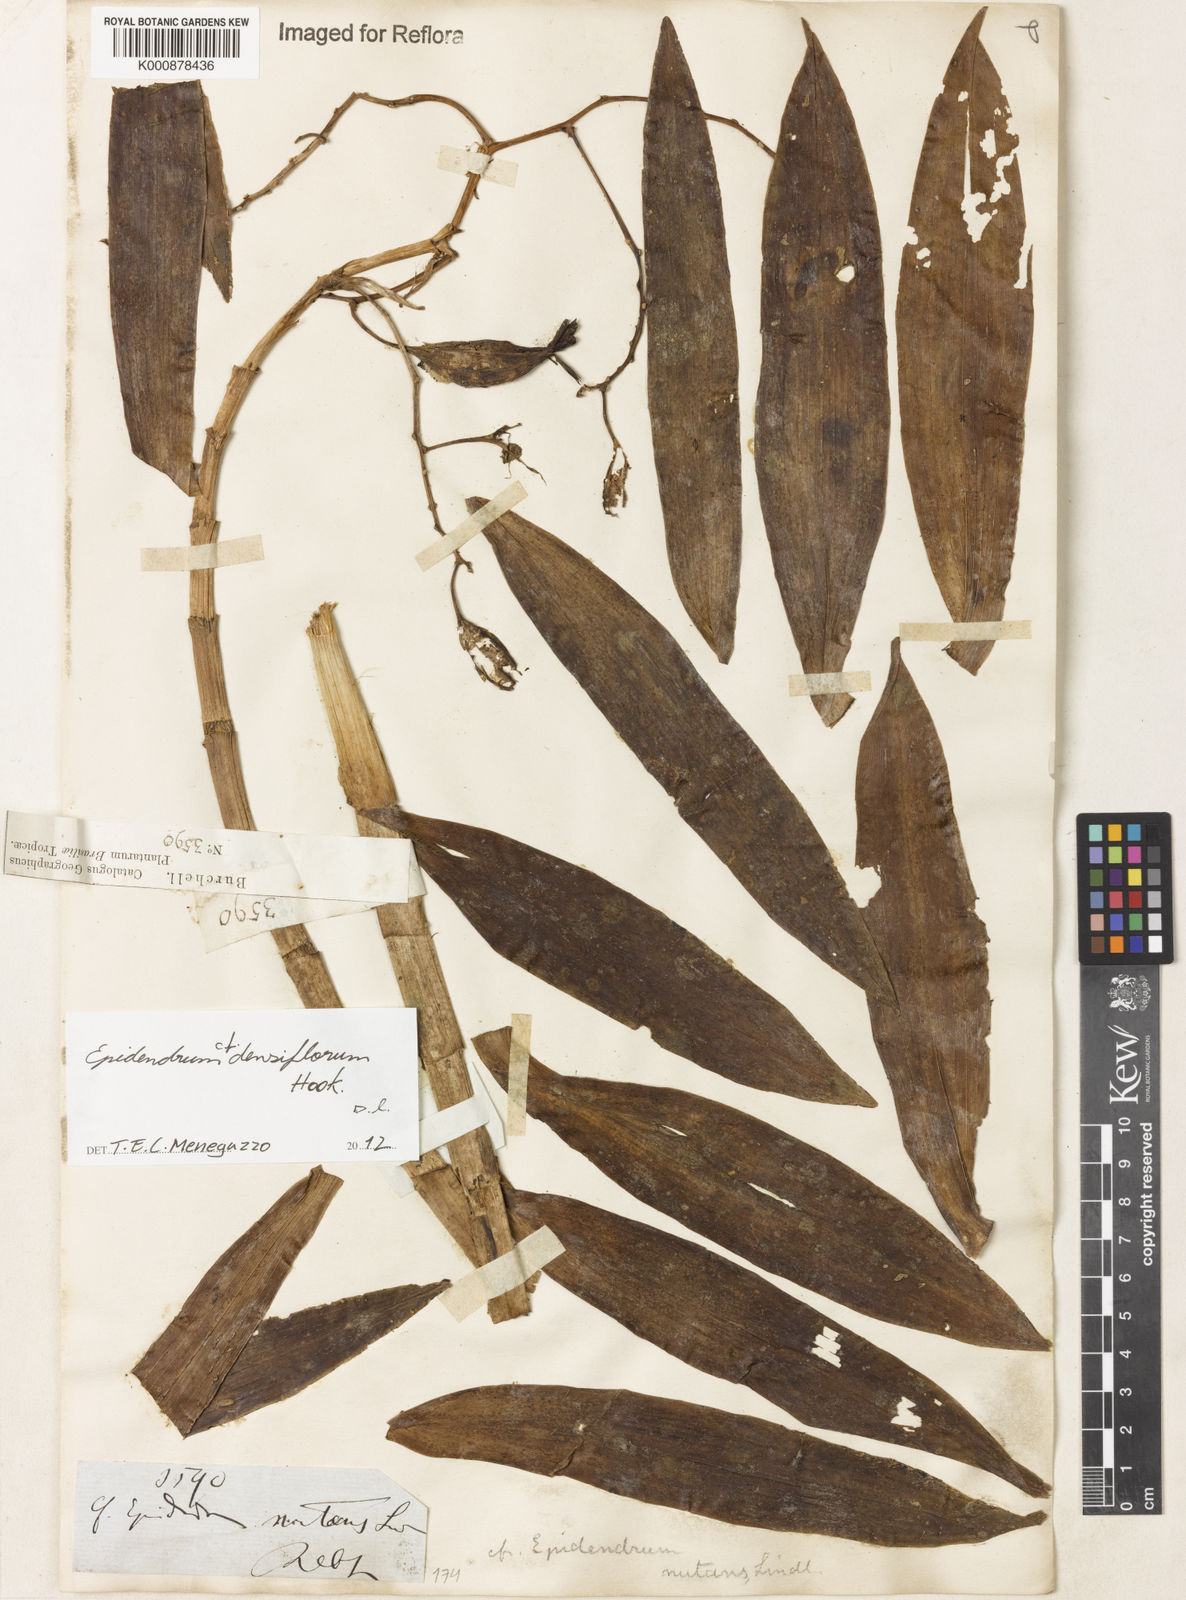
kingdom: Plantae
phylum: Tracheophyta
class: Liliopsida
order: Asparagales
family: Orchidaceae
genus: Epidendrum
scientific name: Epidendrum densiflorum
